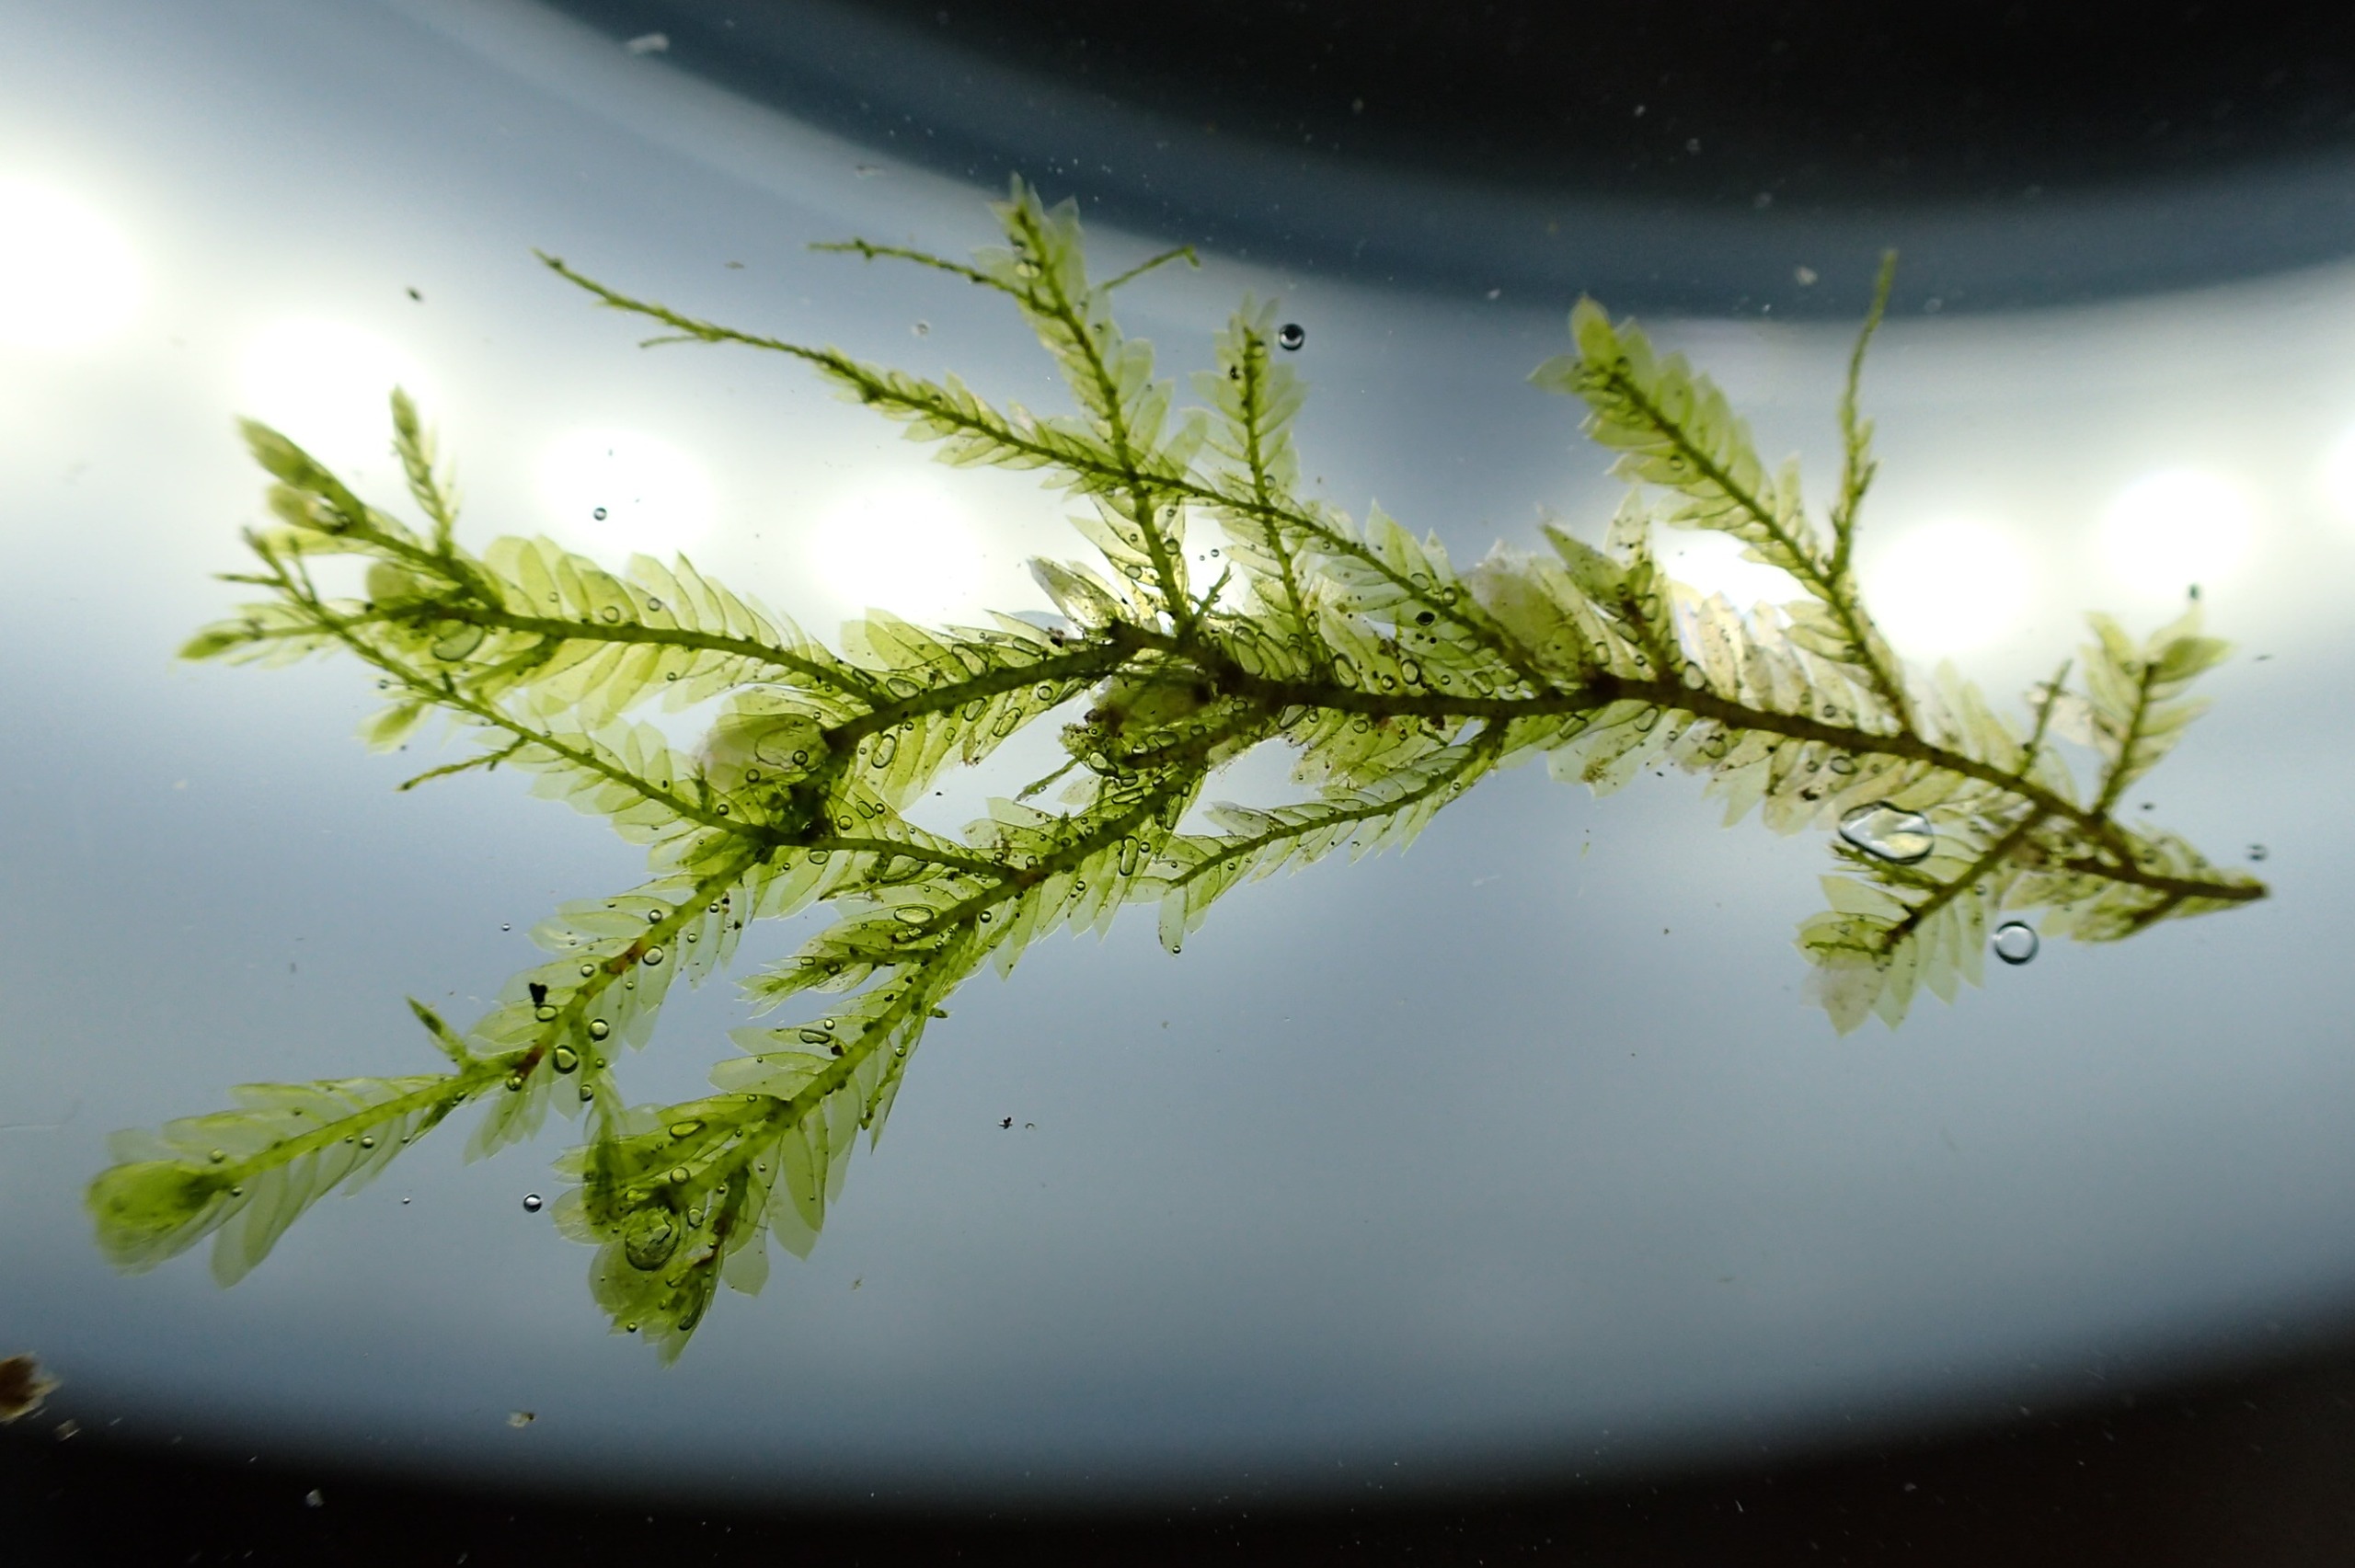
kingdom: Plantae
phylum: Bryophyta
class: Bryopsida
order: Hypnales
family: Neckeraceae
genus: Alleniella
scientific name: Alleniella complanata
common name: Almindelig fladmos
